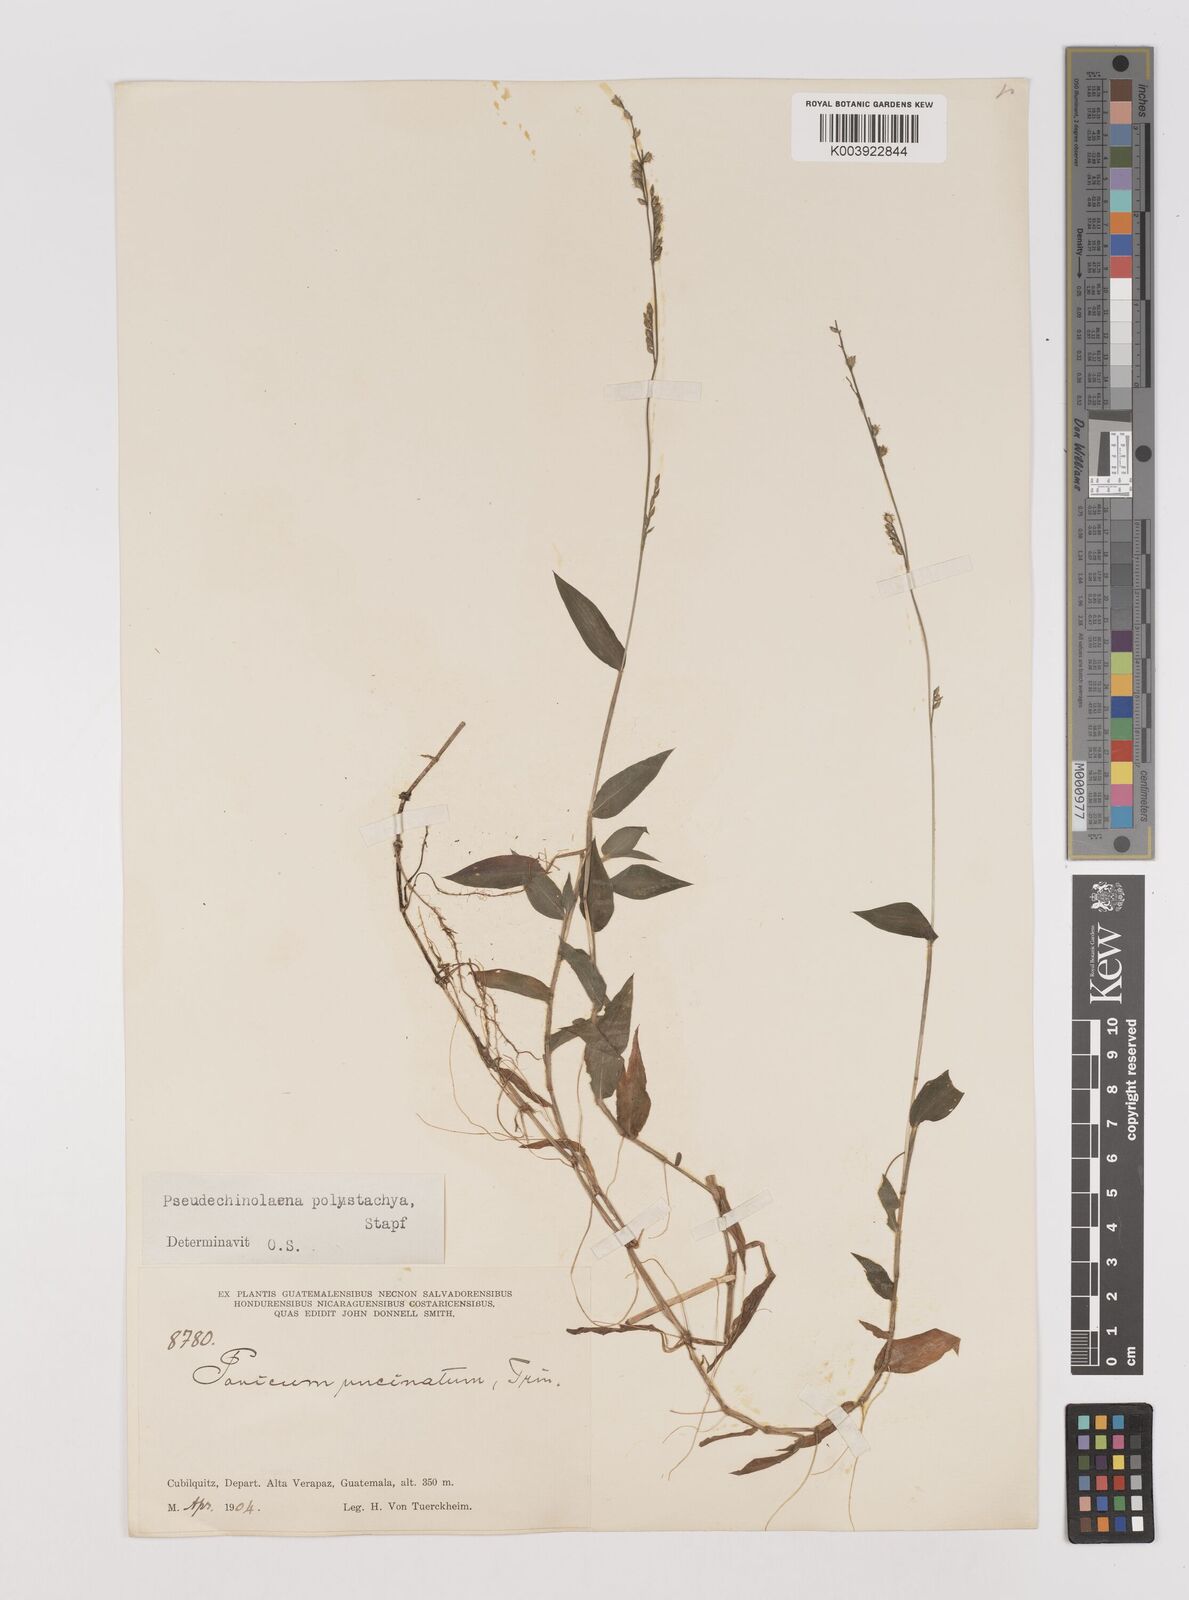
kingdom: Plantae
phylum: Tracheophyta
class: Liliopsida
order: Poales
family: Poaceae
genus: Pseudechinolaena
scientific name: Pseudechinolaena polystachya
